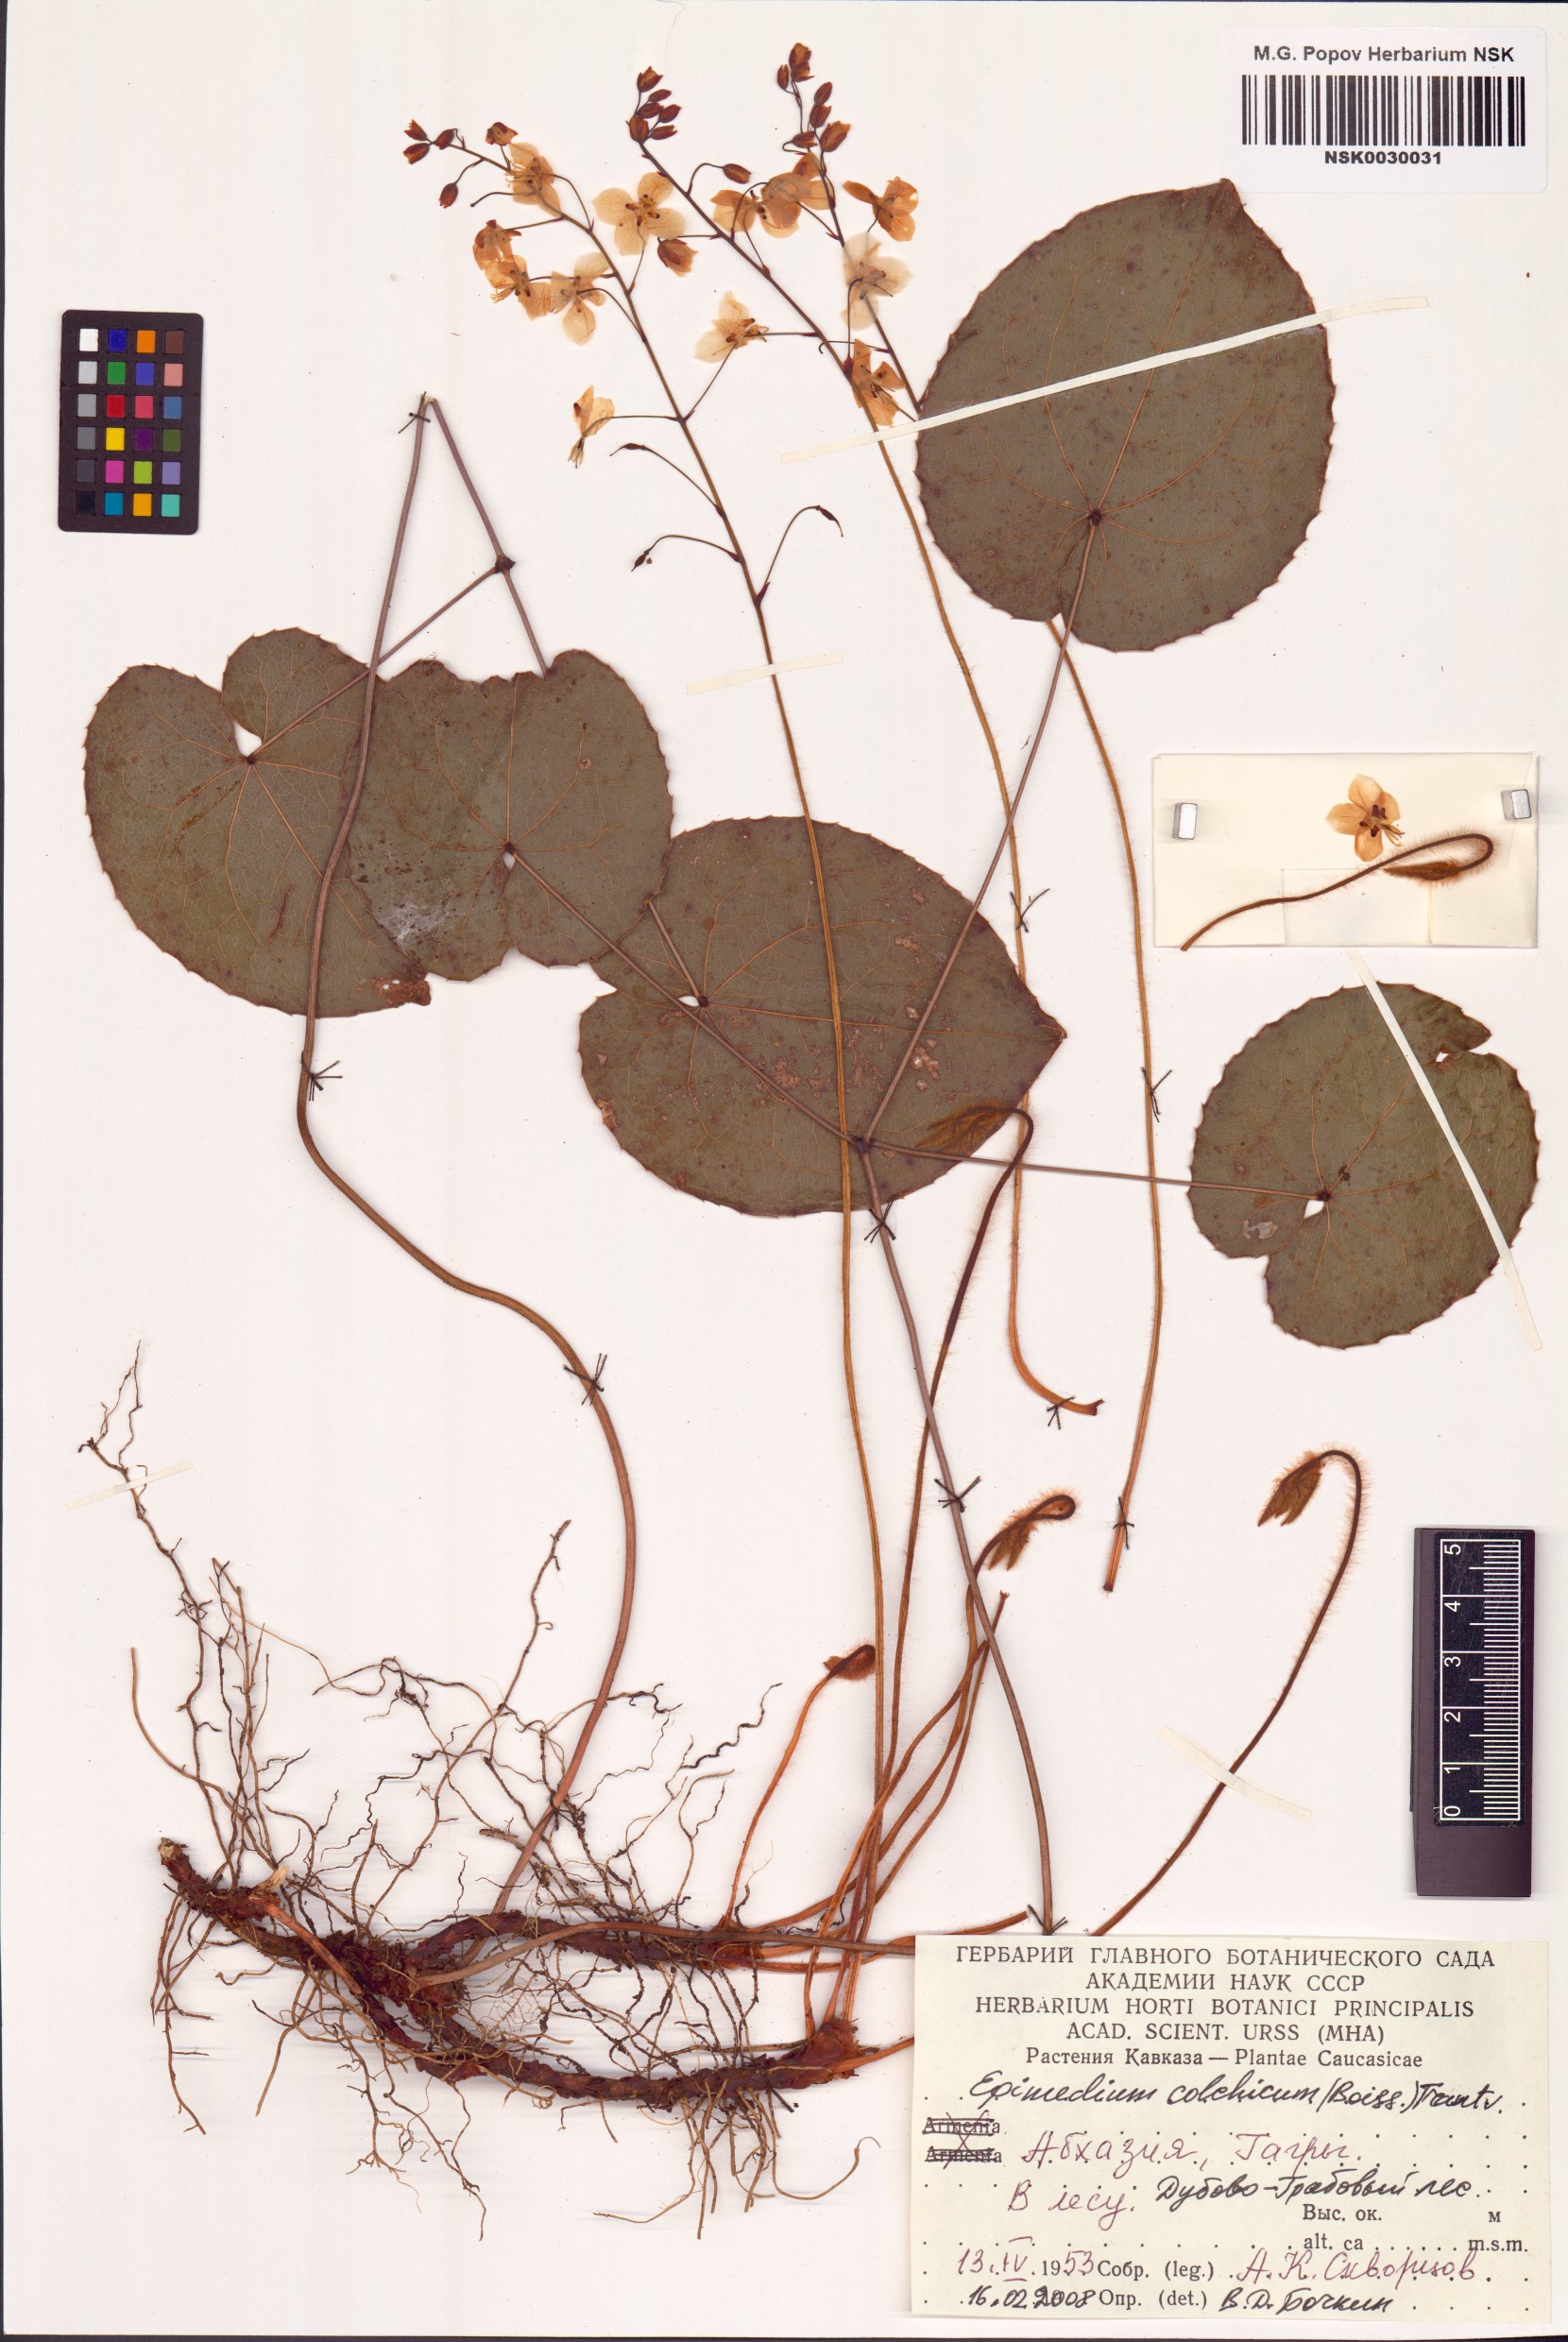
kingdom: Plantae
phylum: Tracheophyta
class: Magnoliopsida
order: Ranunculales
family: Berberidaceae
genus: Epimedium
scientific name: Epimedium pinnatum
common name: Caucasian barrenwort
